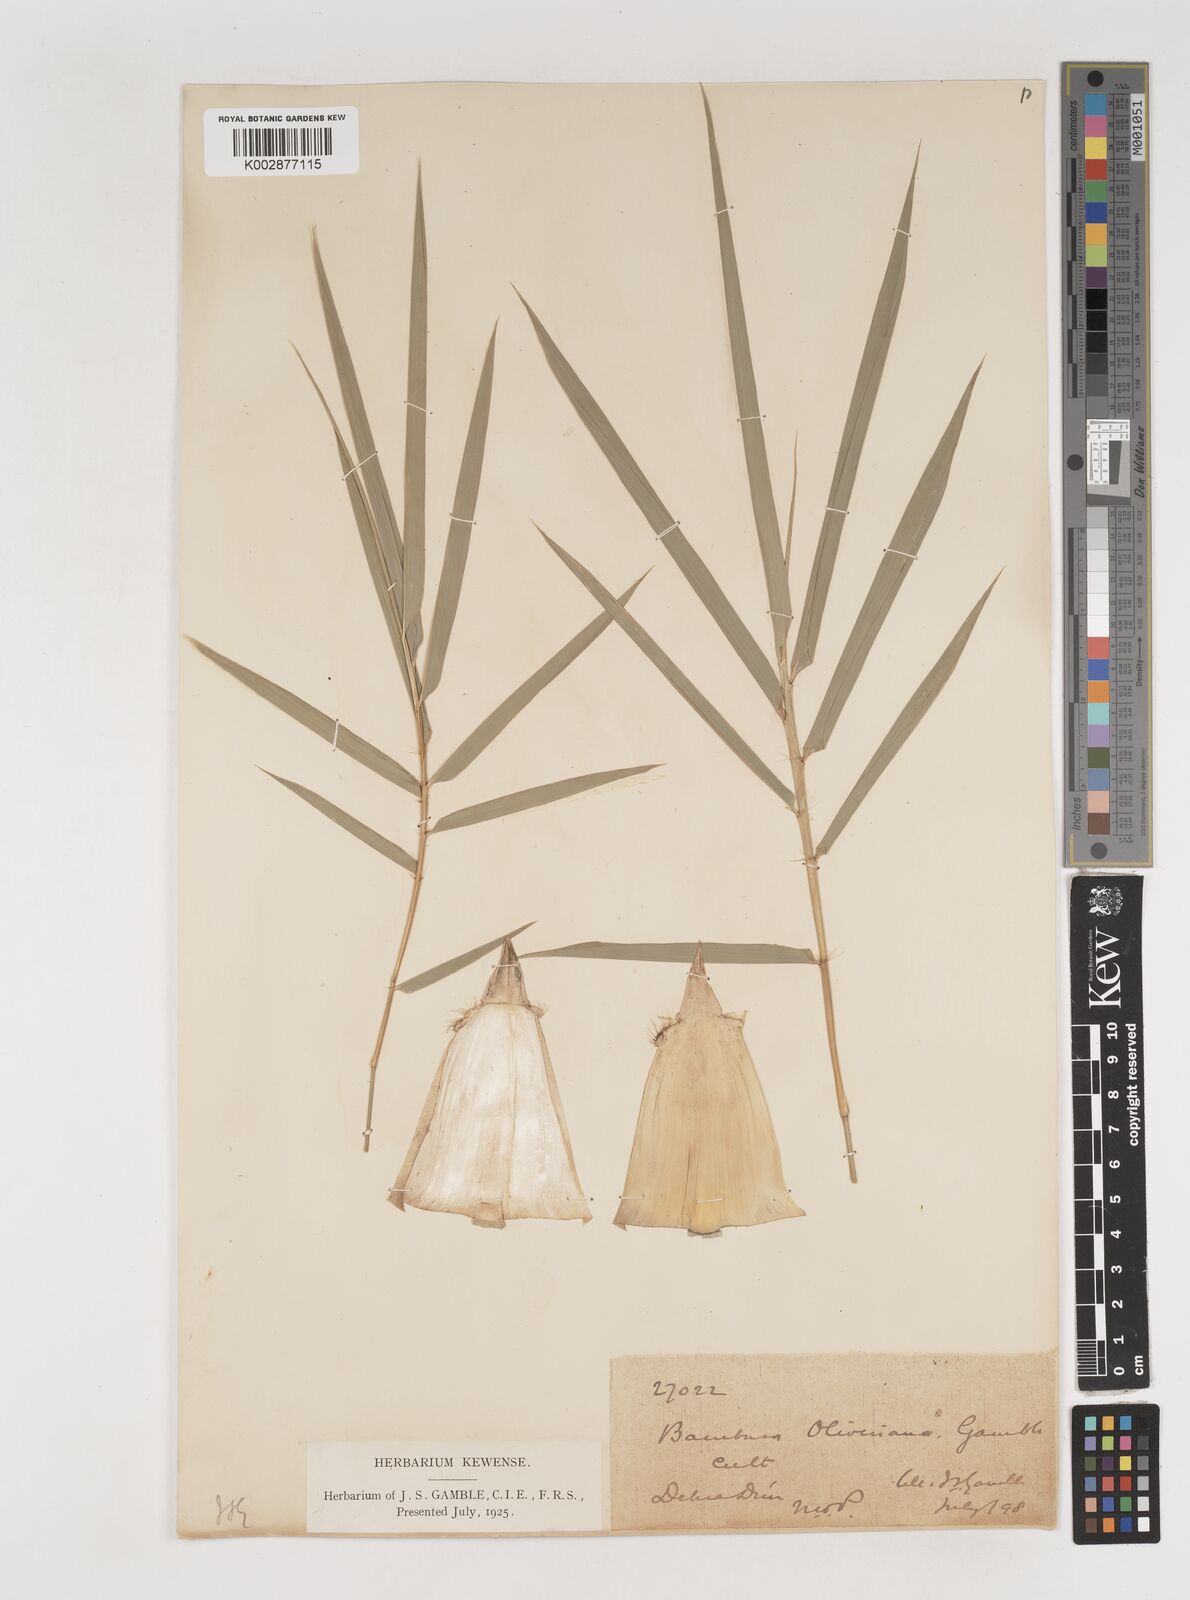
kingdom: Plantae
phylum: Tracheophyta
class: Liliopsida
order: Poales
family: Poaceae
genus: Bambusa
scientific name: Bambusa
